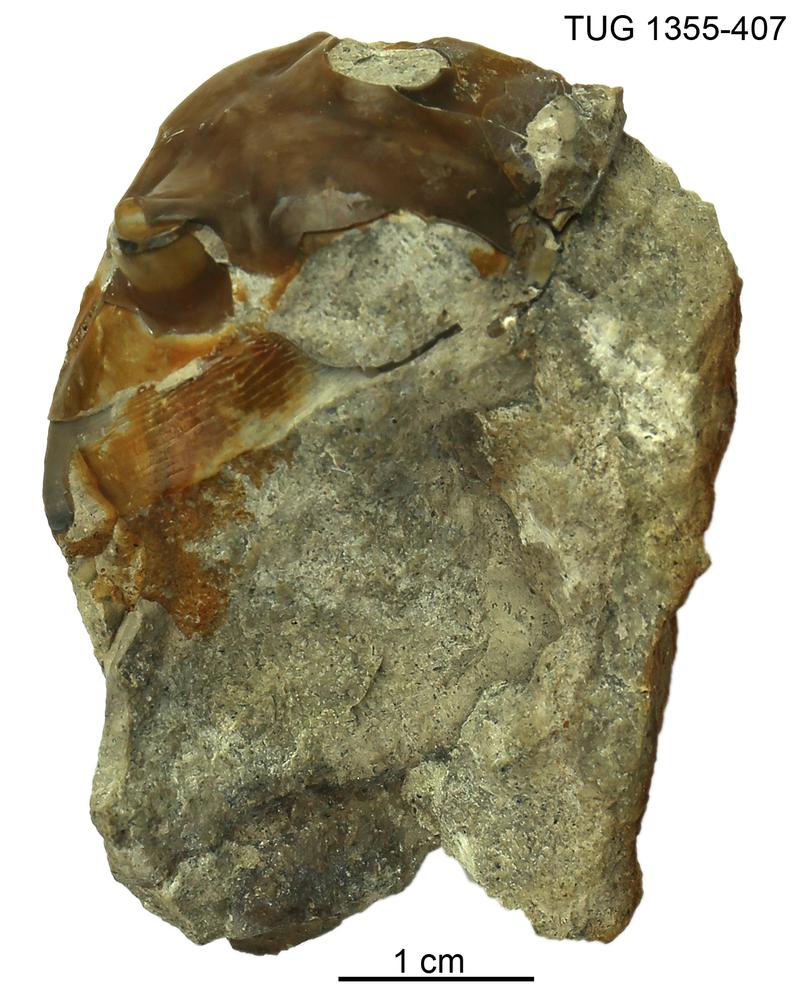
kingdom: Animalia
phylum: Arthropoda
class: Trilobita
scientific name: Trilobita
